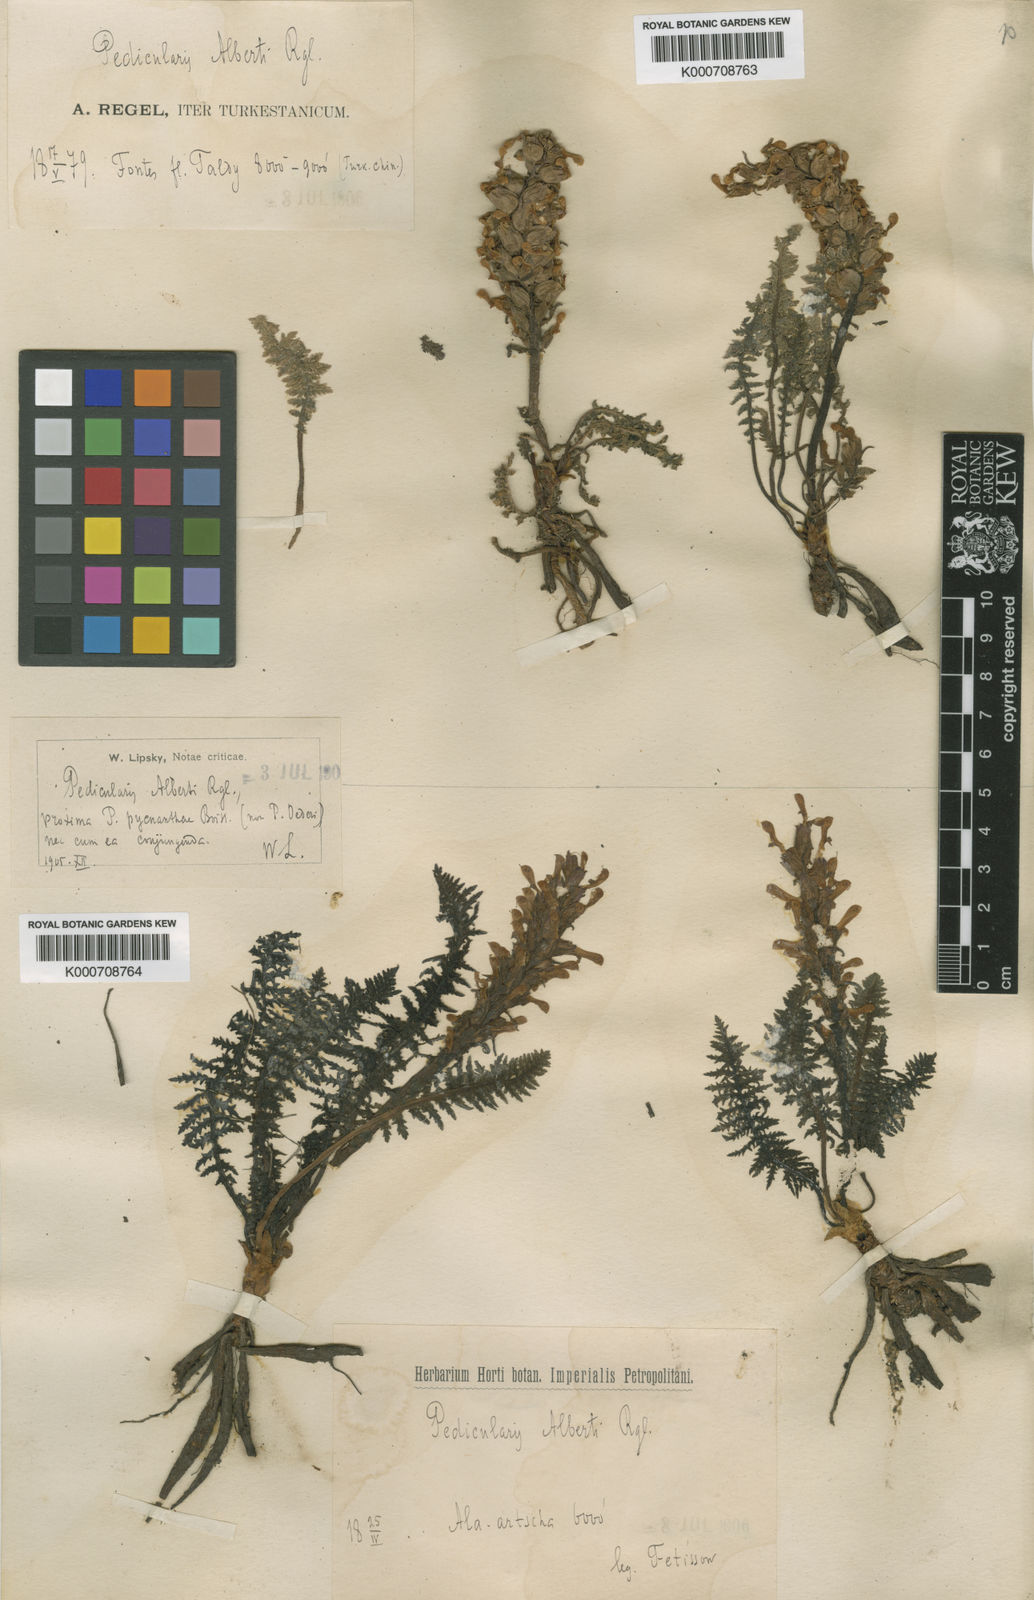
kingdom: Plantae
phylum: Tracheophyta
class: Magnoliopsida
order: Lamiales
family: Orobanchaceae
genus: Pedicularis
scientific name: Pedicularis alberti
